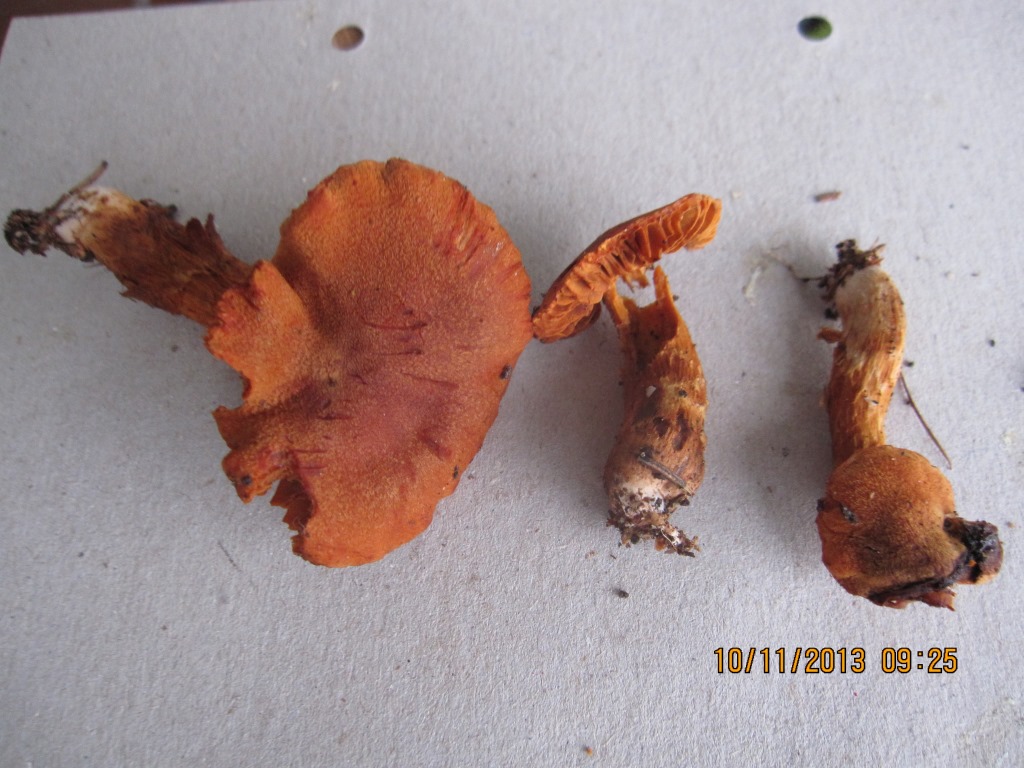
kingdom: Fungi
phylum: Basidiomycota
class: Agaricomycetes
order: Agaricales
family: Cortinariaceae
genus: Cortinarius
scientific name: Cortinarius rubellus
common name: puklet gift-slørhat
